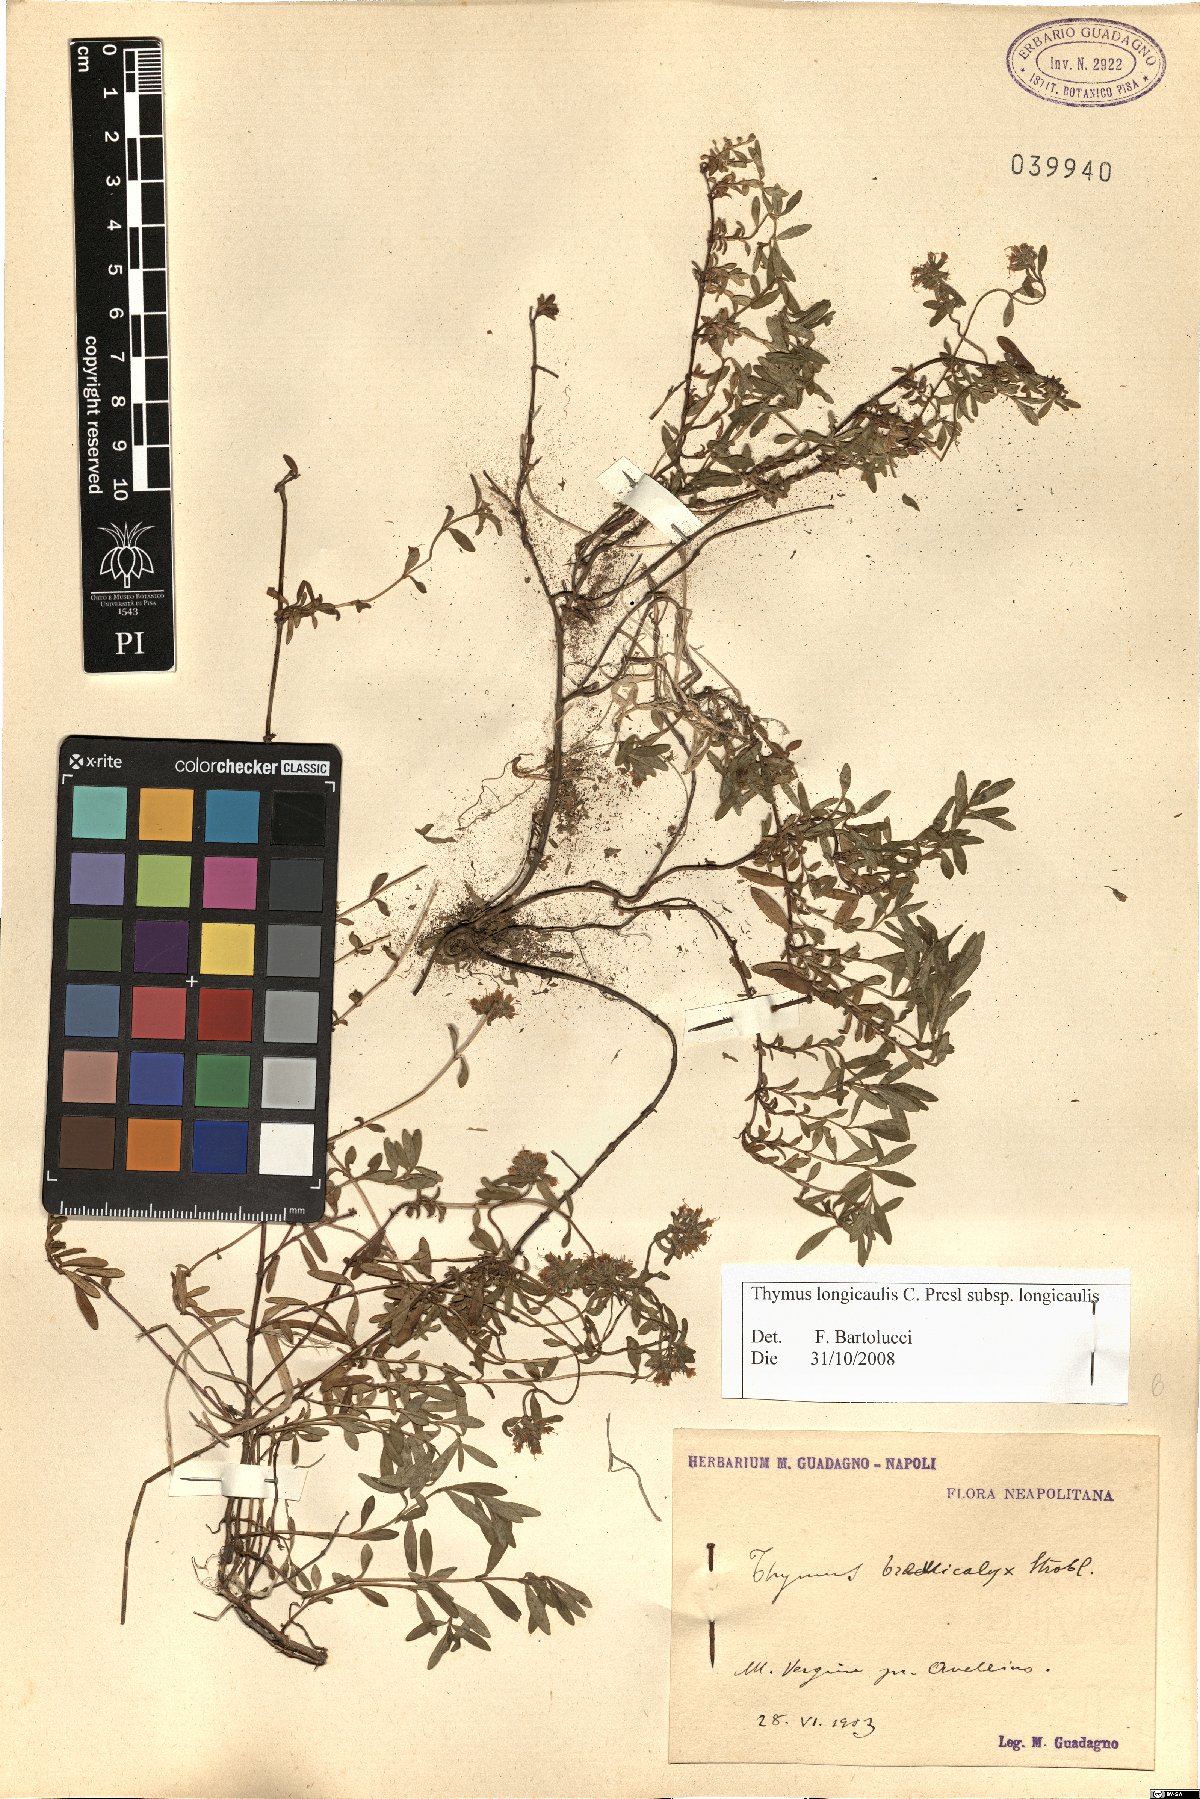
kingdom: Plantae
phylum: Tracheophyta
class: Magnoliopsida
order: Lamiales
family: Lamiaceae
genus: Thymus
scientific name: Thymus longicaulis
